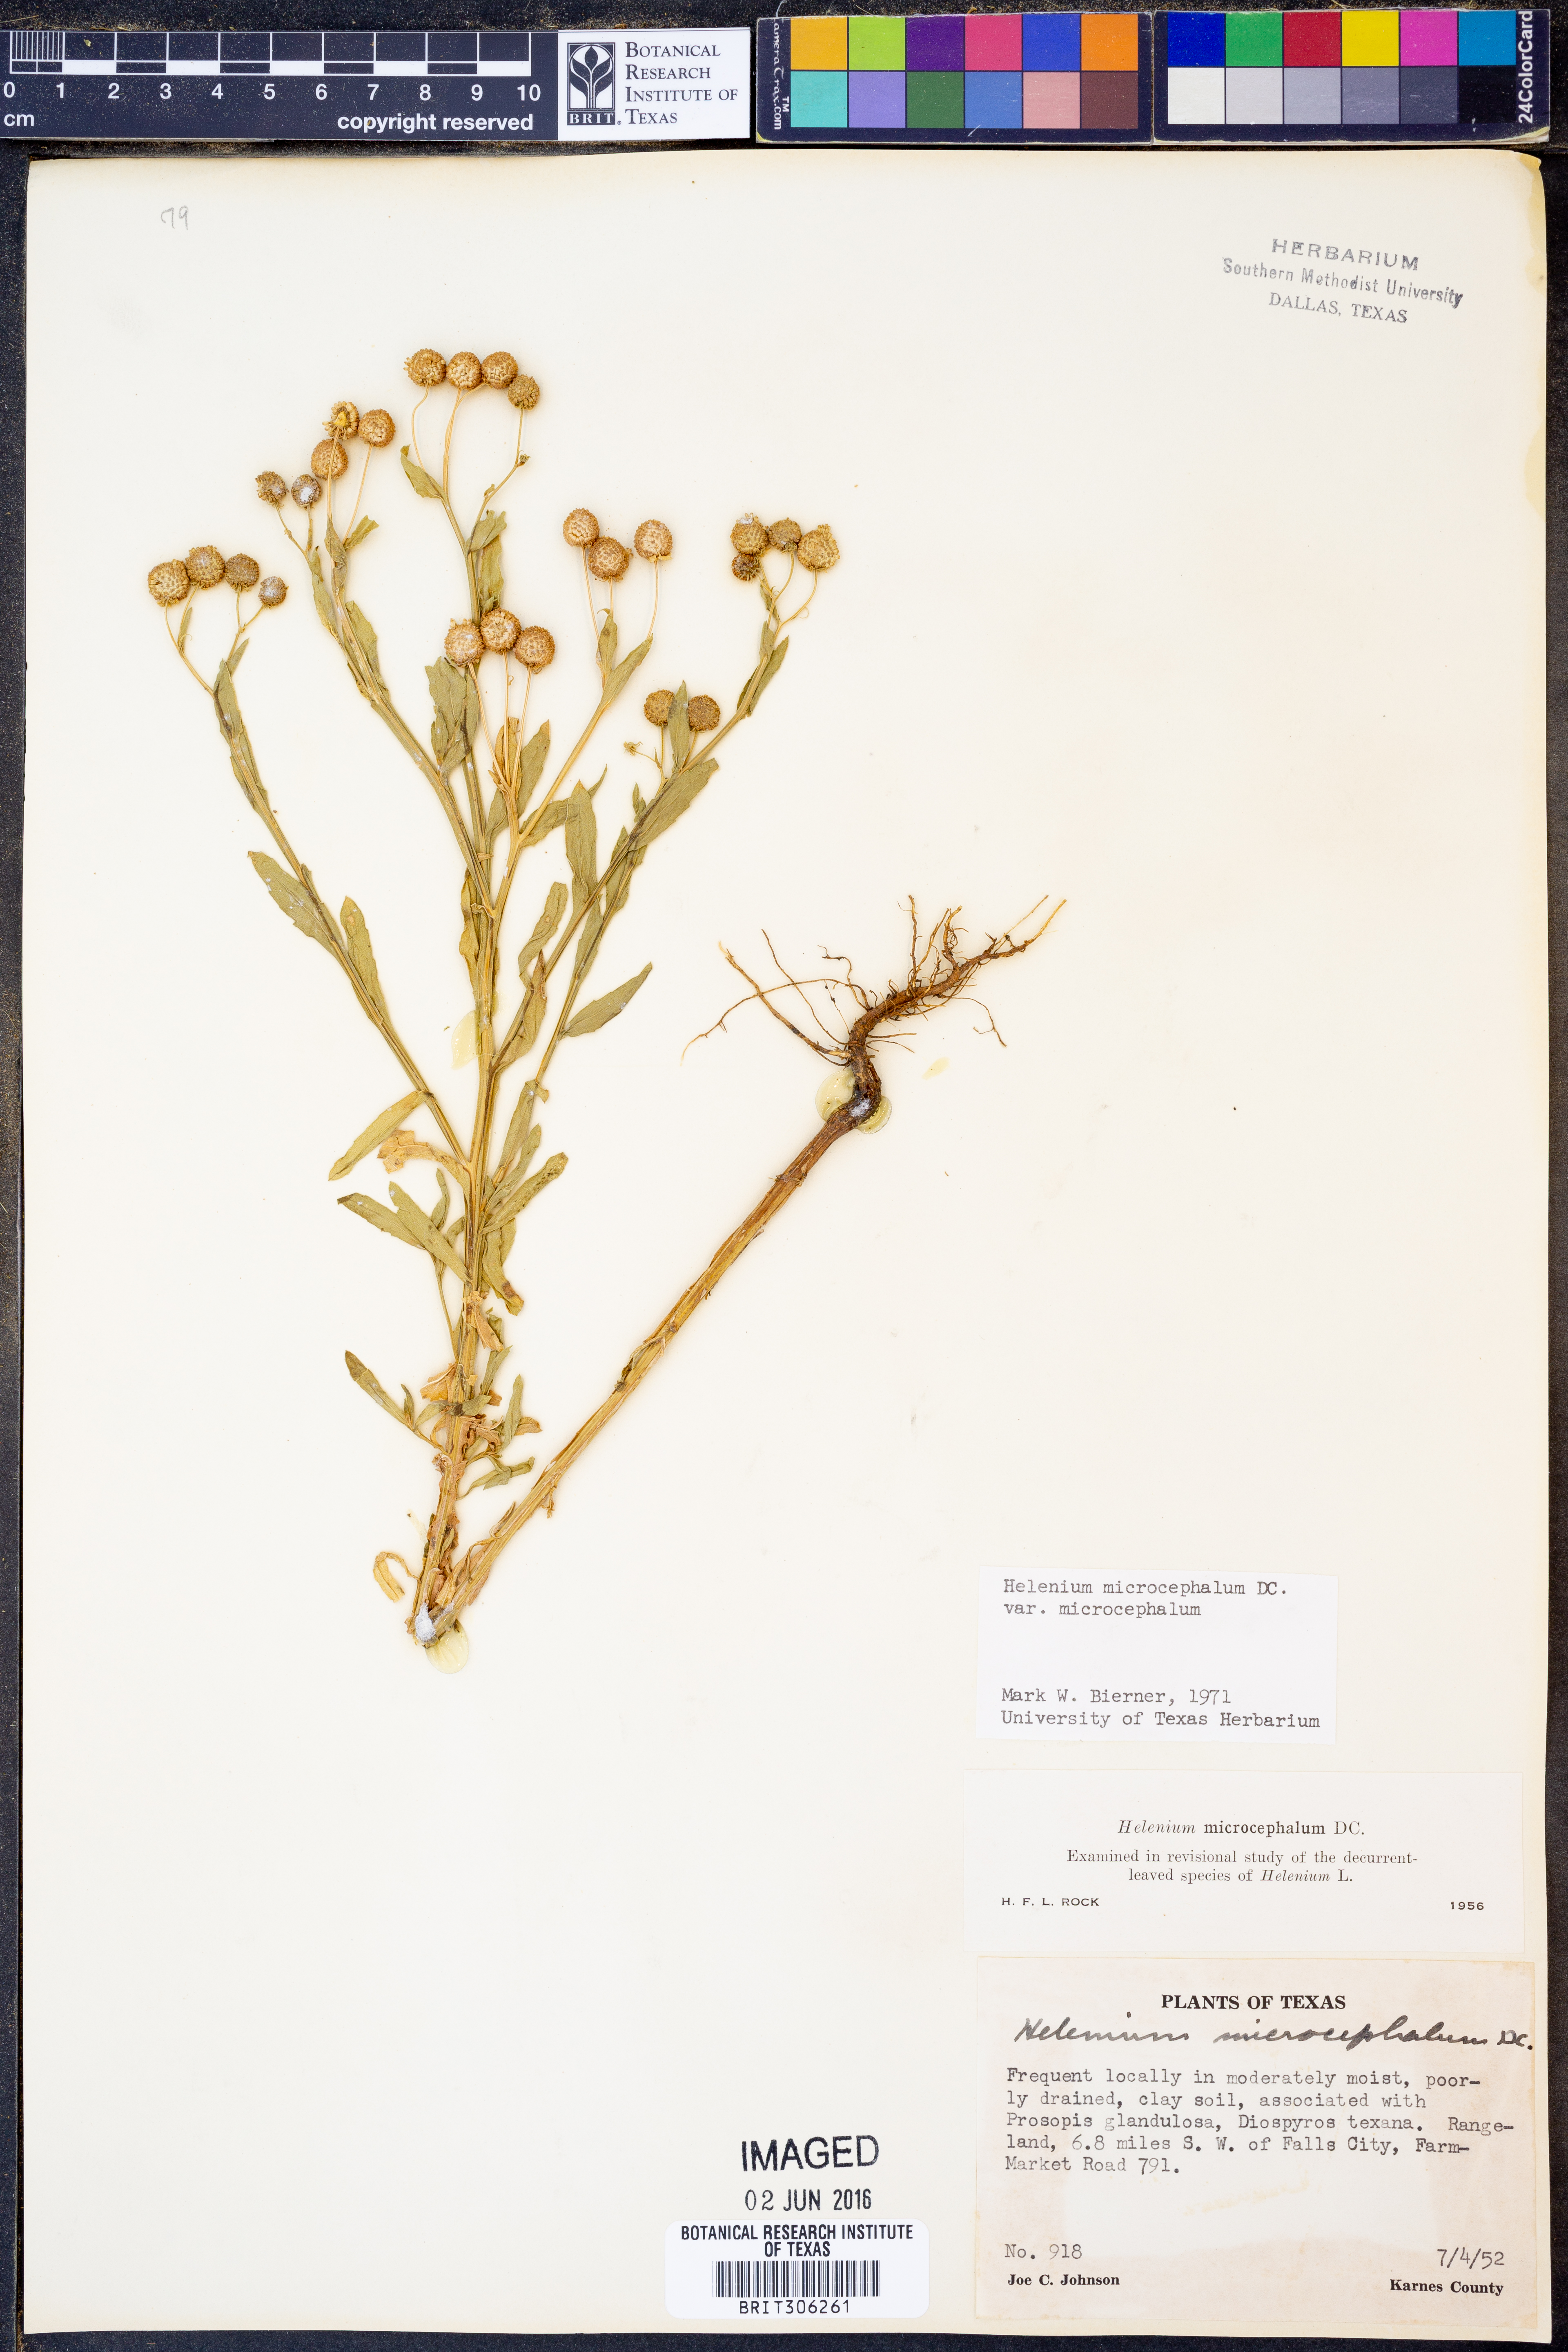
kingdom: Plantae
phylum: Tracheophyta
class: Magnoliopsida
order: Asterales
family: Asteraceae
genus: Helenium
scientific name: Helenium microcephalum
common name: Smallhead sneezeweed
